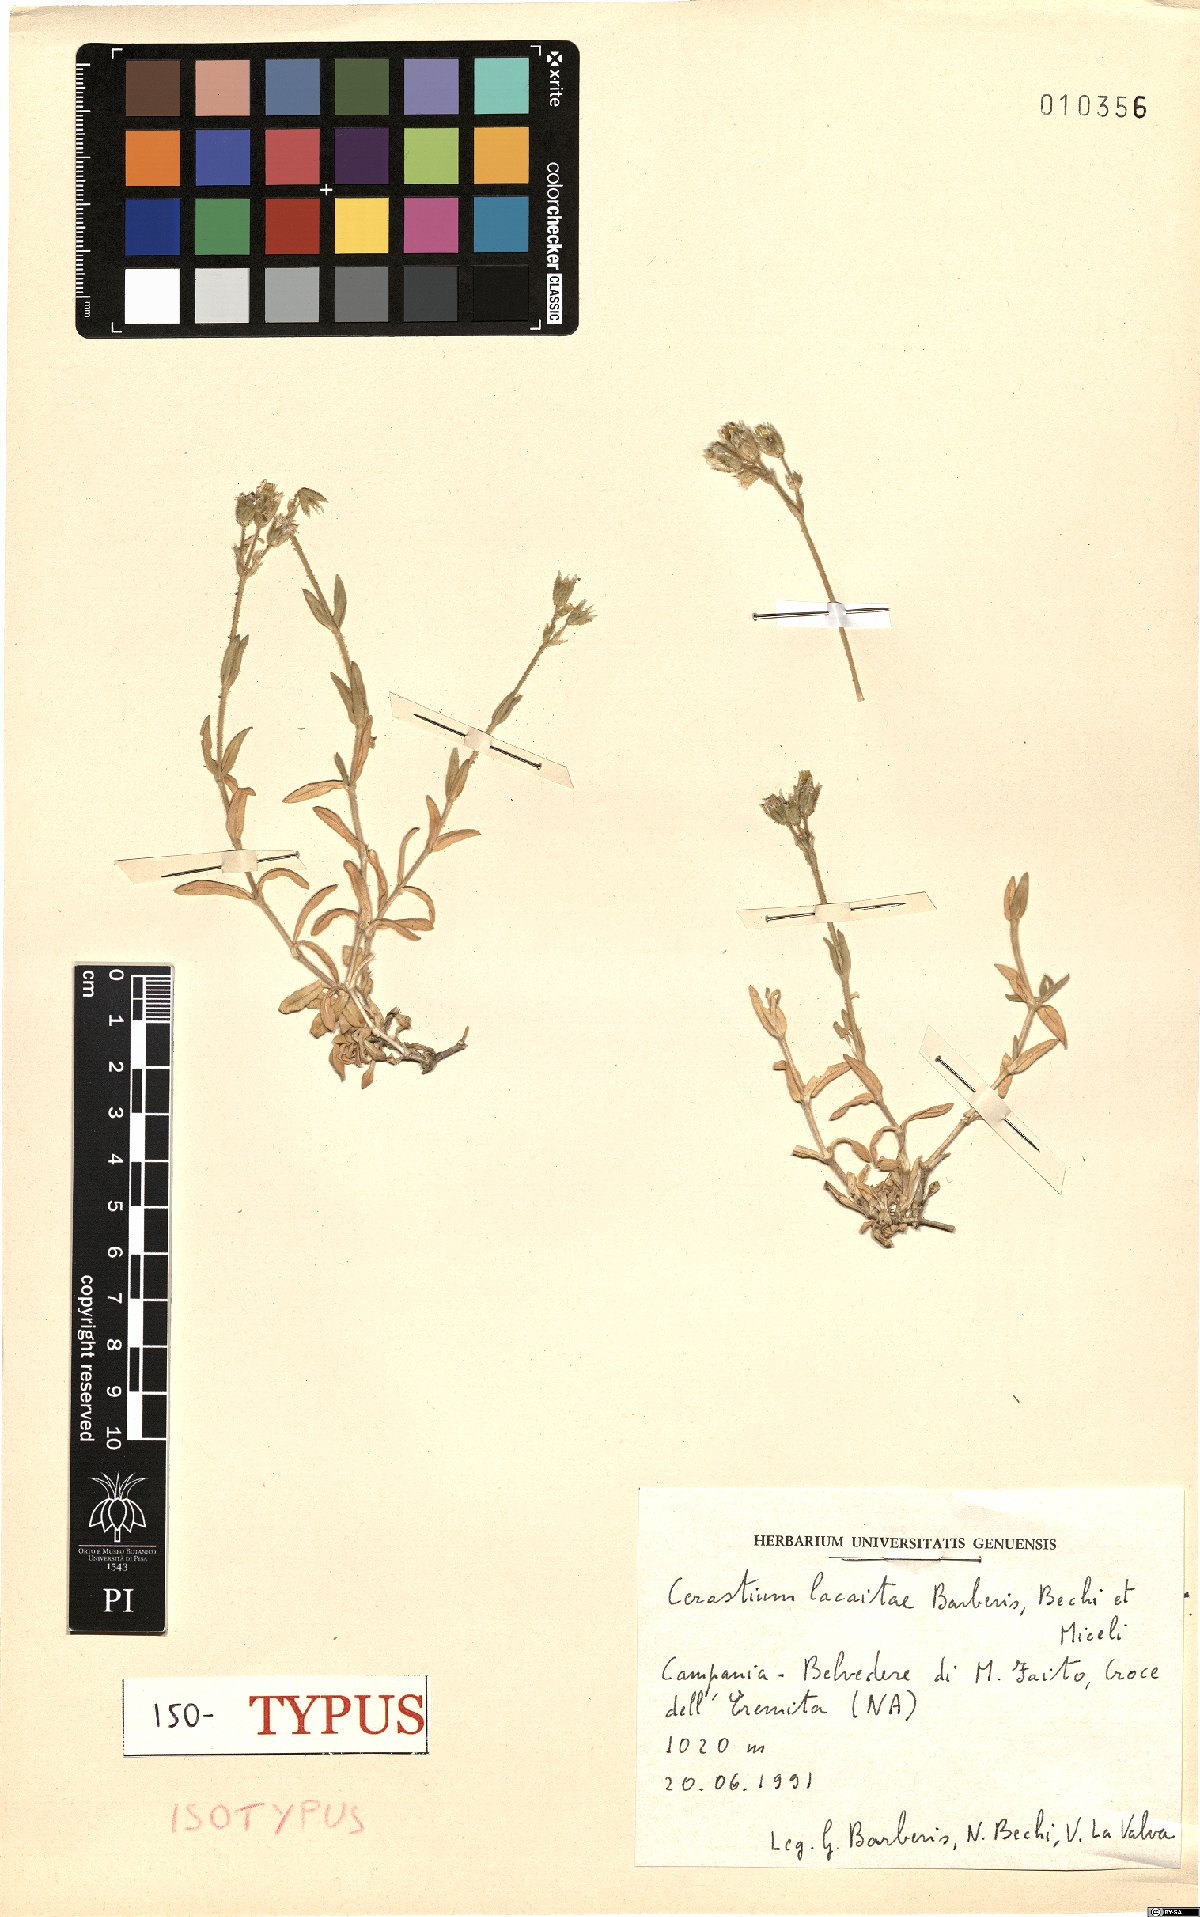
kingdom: Plantae
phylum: Tracheophyta
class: Magnoliopsida
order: Caryophyllales
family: Caryophyllaceae
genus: Cerastium
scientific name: Cerastium lacaitae
